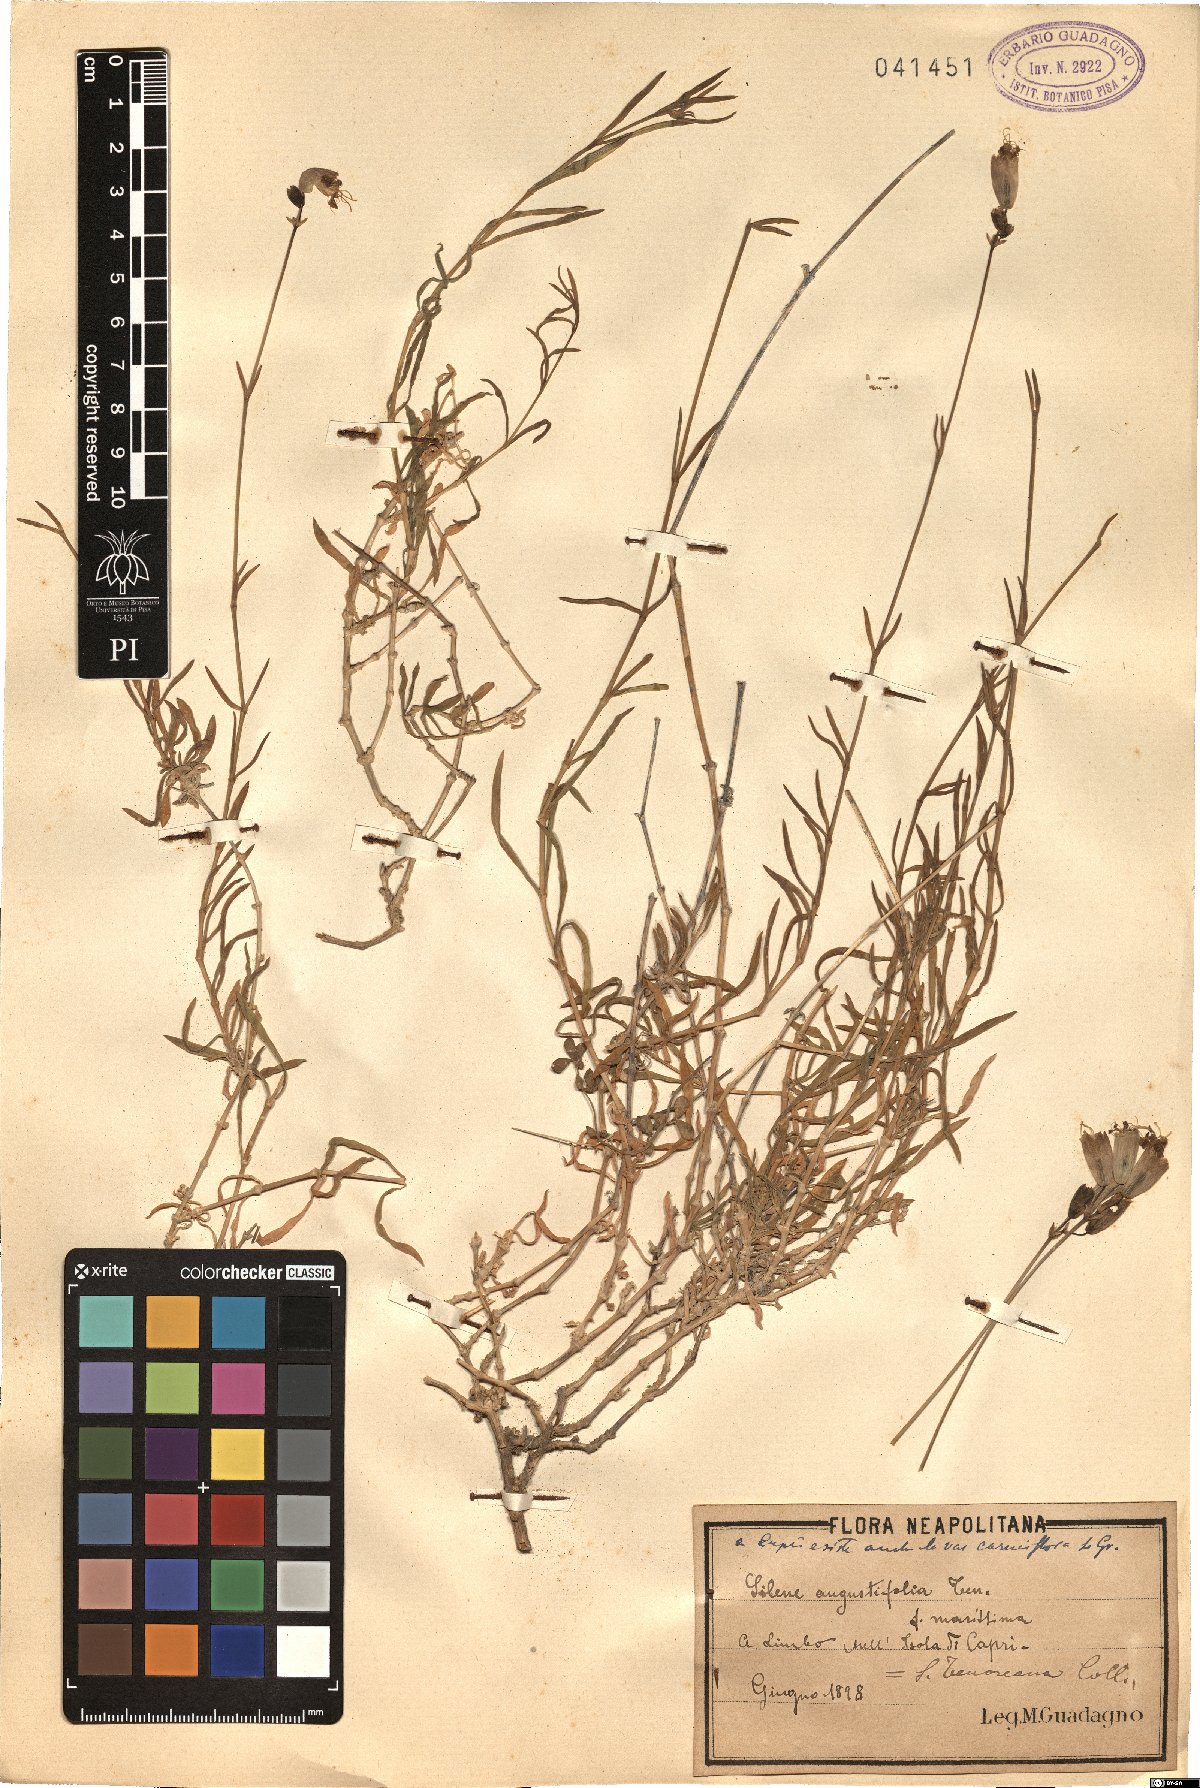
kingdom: Plantae
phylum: Tracheophyta
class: Magnoliopsida
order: Caryophyllales
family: Caryophyllaceae
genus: Silene
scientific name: Silene vulgaris
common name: Bladder campion
